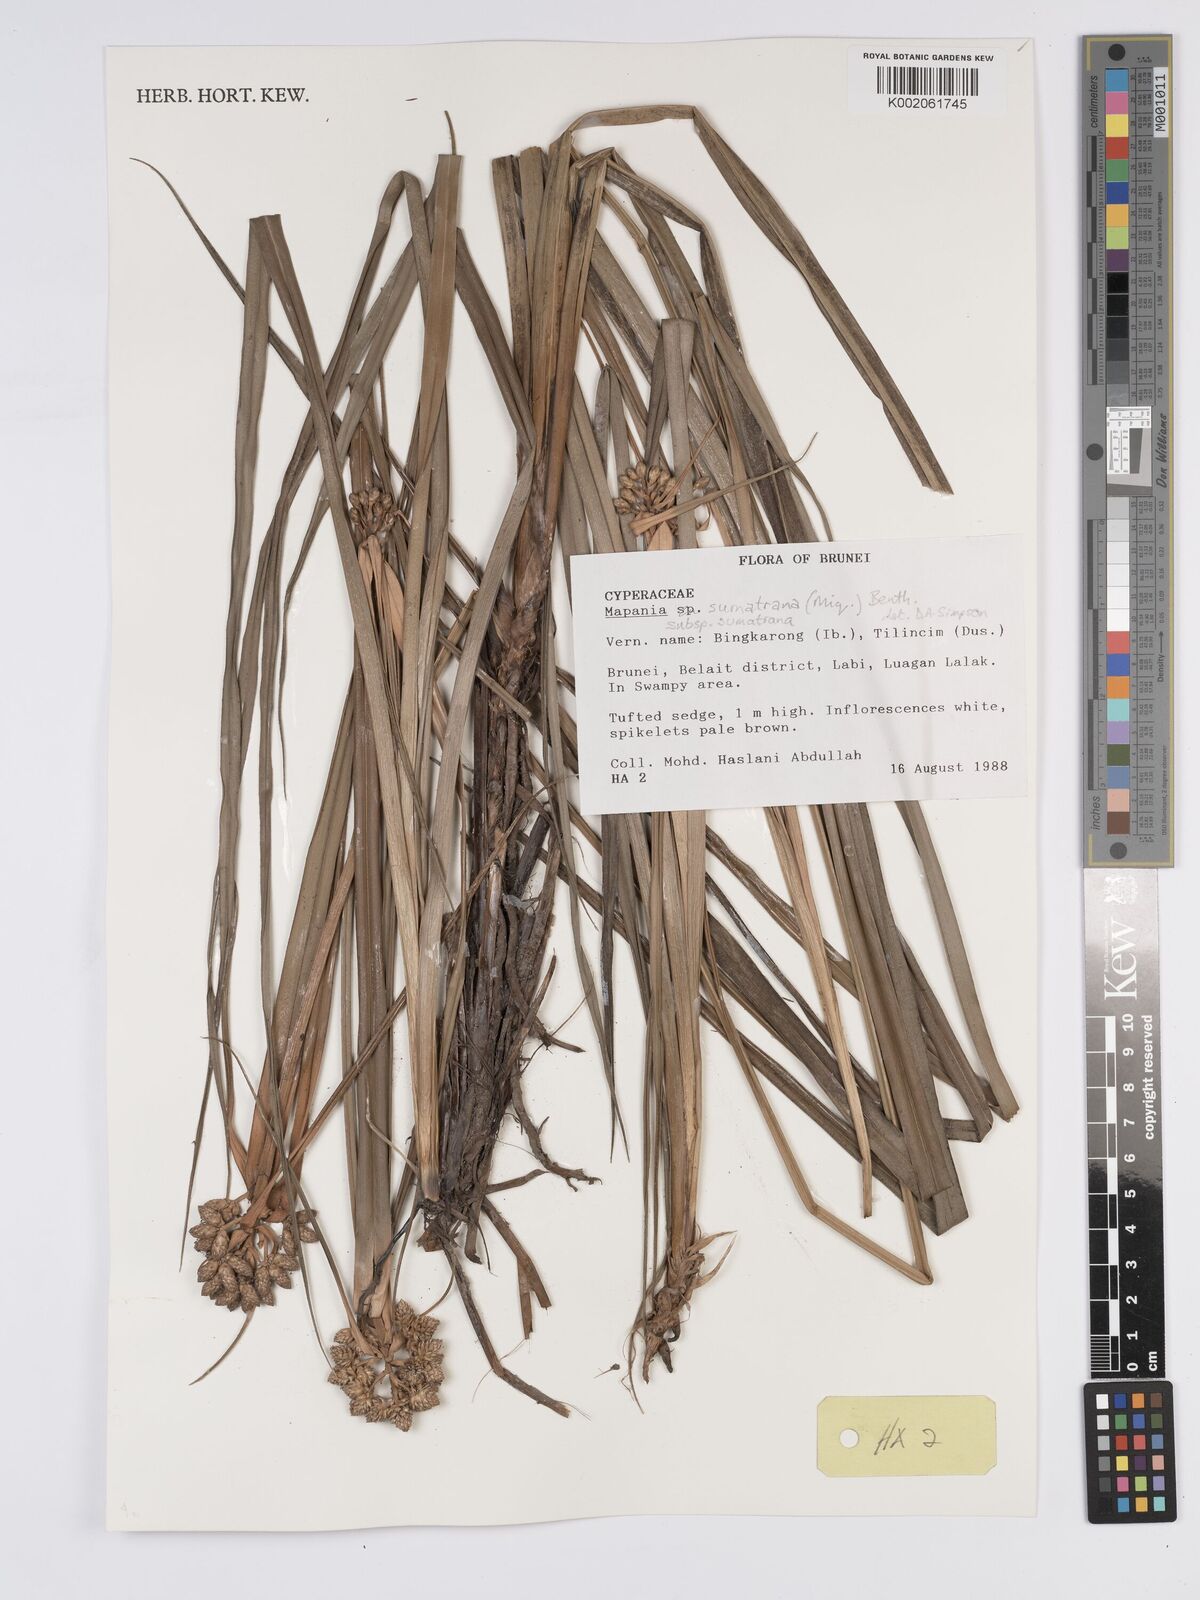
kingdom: Plantae
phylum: Tracheophyta
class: Liliopsida
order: Poales
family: Cyperaceae
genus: Mapania
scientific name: Mapania sumatrana
